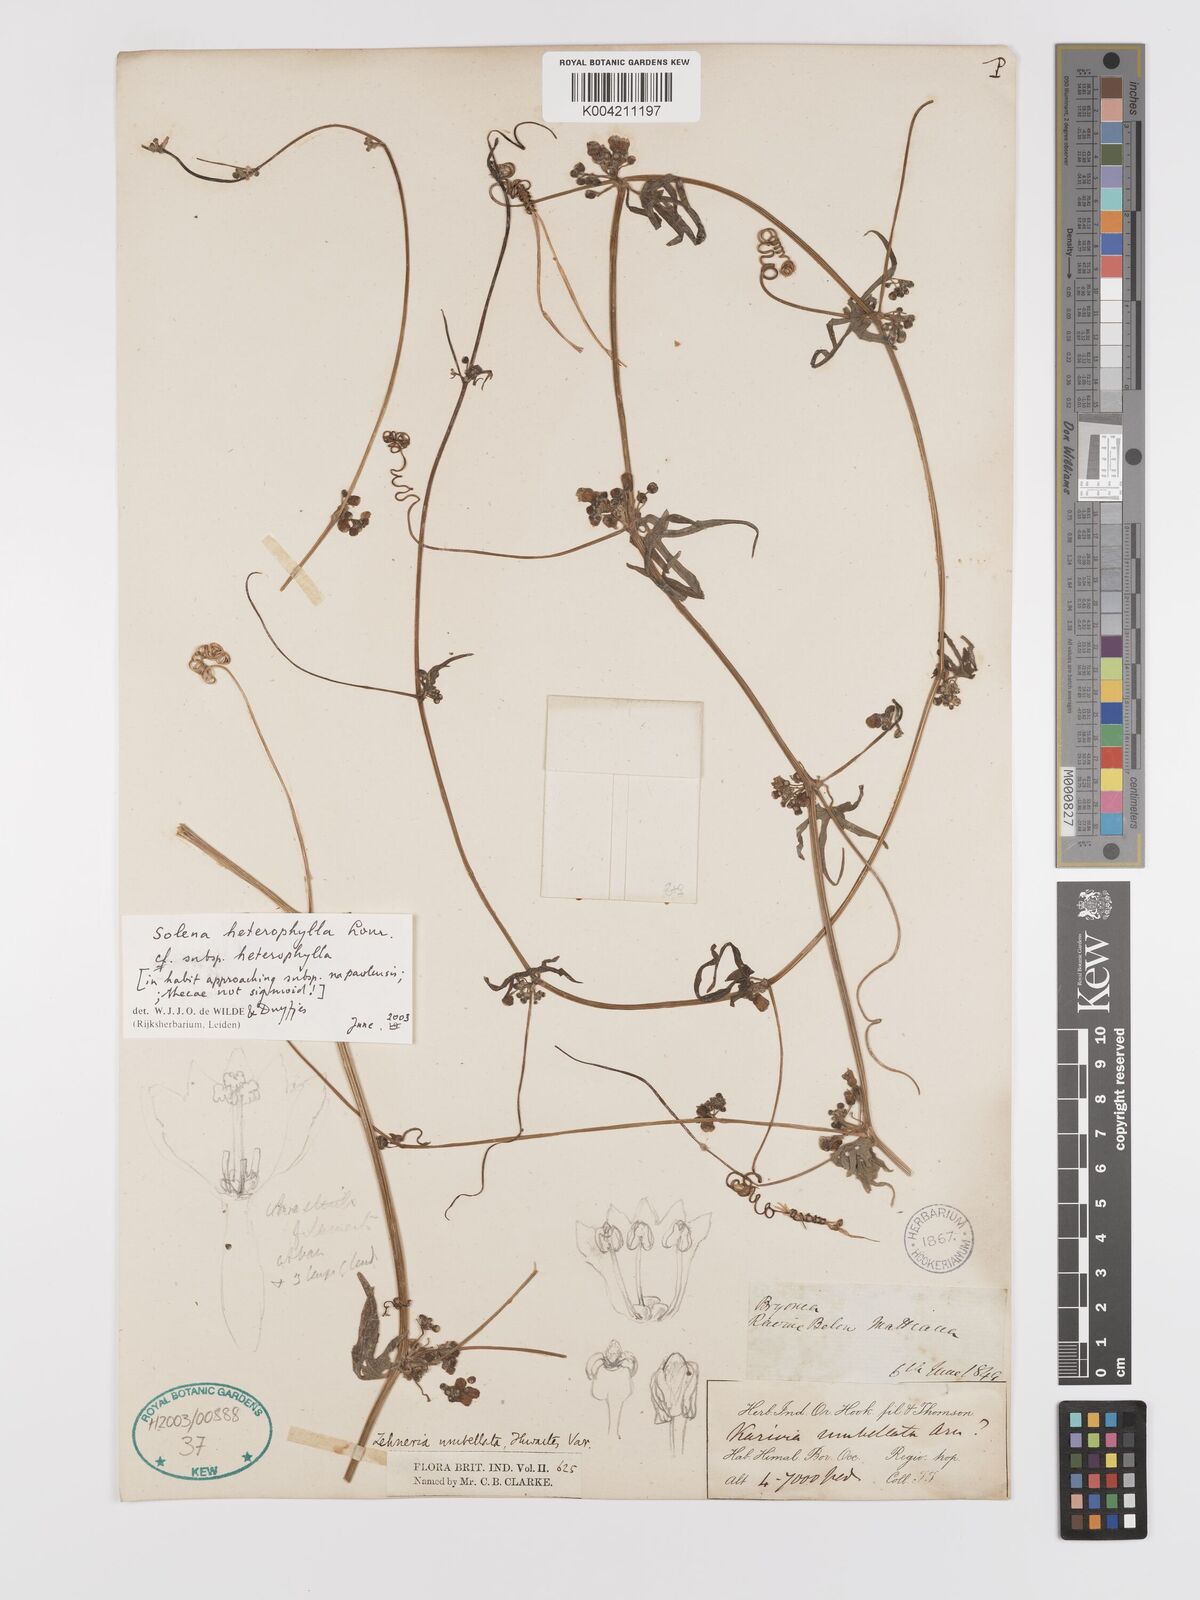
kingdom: Plantae
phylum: Tracheophyta
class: Magnoliopsida
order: Cucurbitales
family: Cucurbitaceae
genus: Solena
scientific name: Solena amplexicaulis
